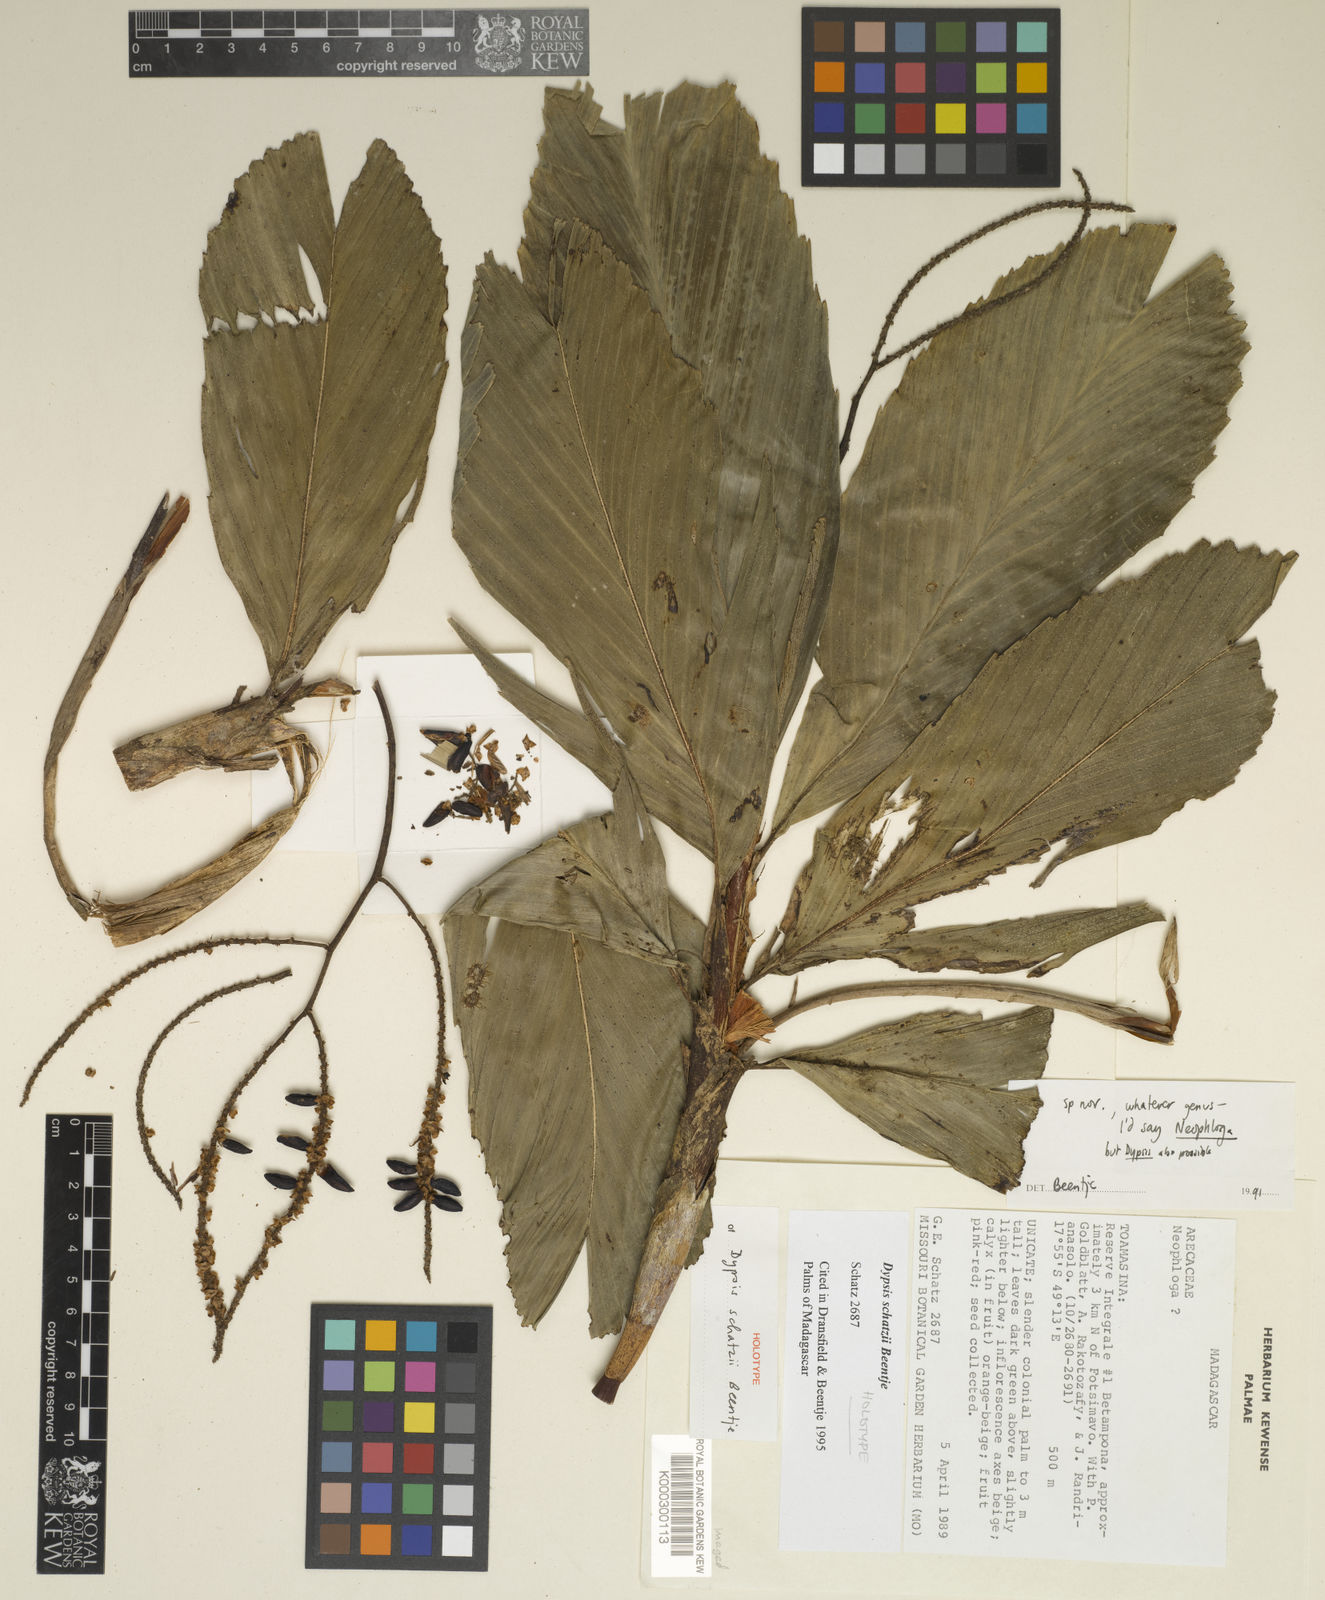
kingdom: Plantae
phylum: Tracheophyta
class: Liliopsida
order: Arecales
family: Arecaceae
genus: Dypsis
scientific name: Dypsis schatzii
